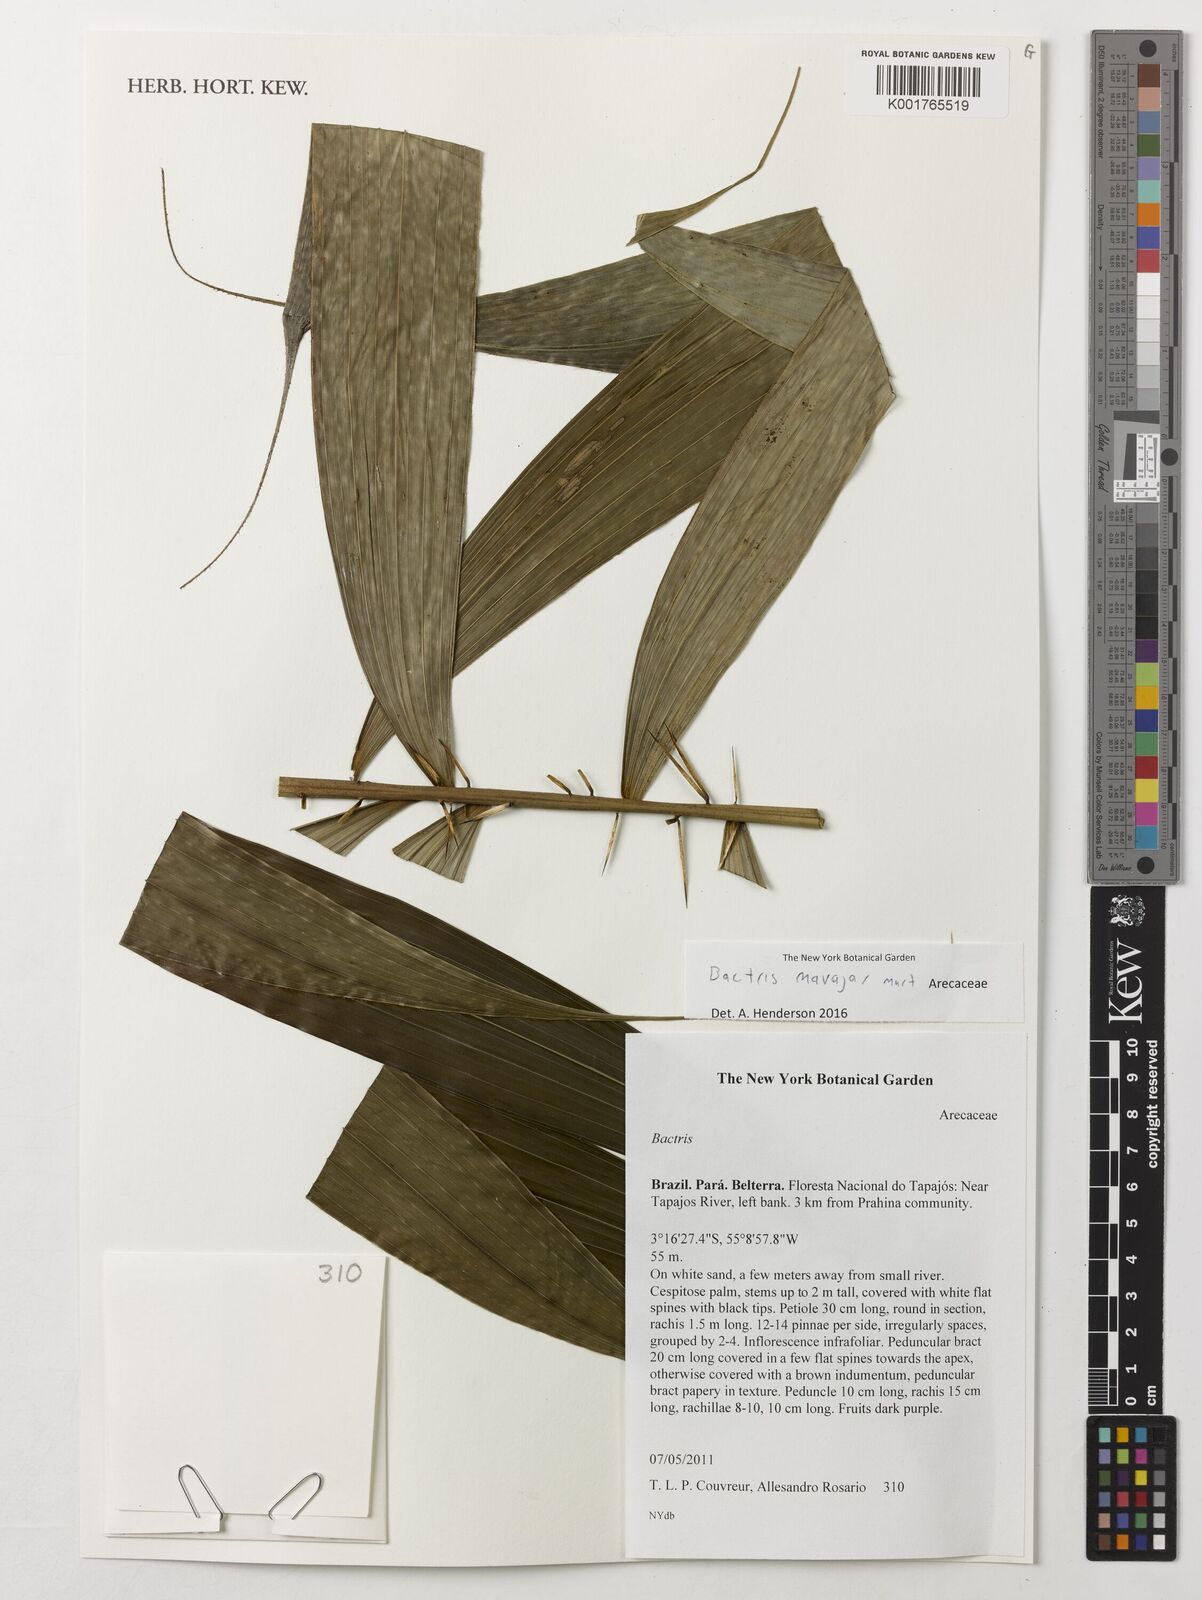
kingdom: Plantae
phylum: Tracheophyta
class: Liliopsida
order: Arecales
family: Arecaceae
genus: Bactris
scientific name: Bactris maraja
